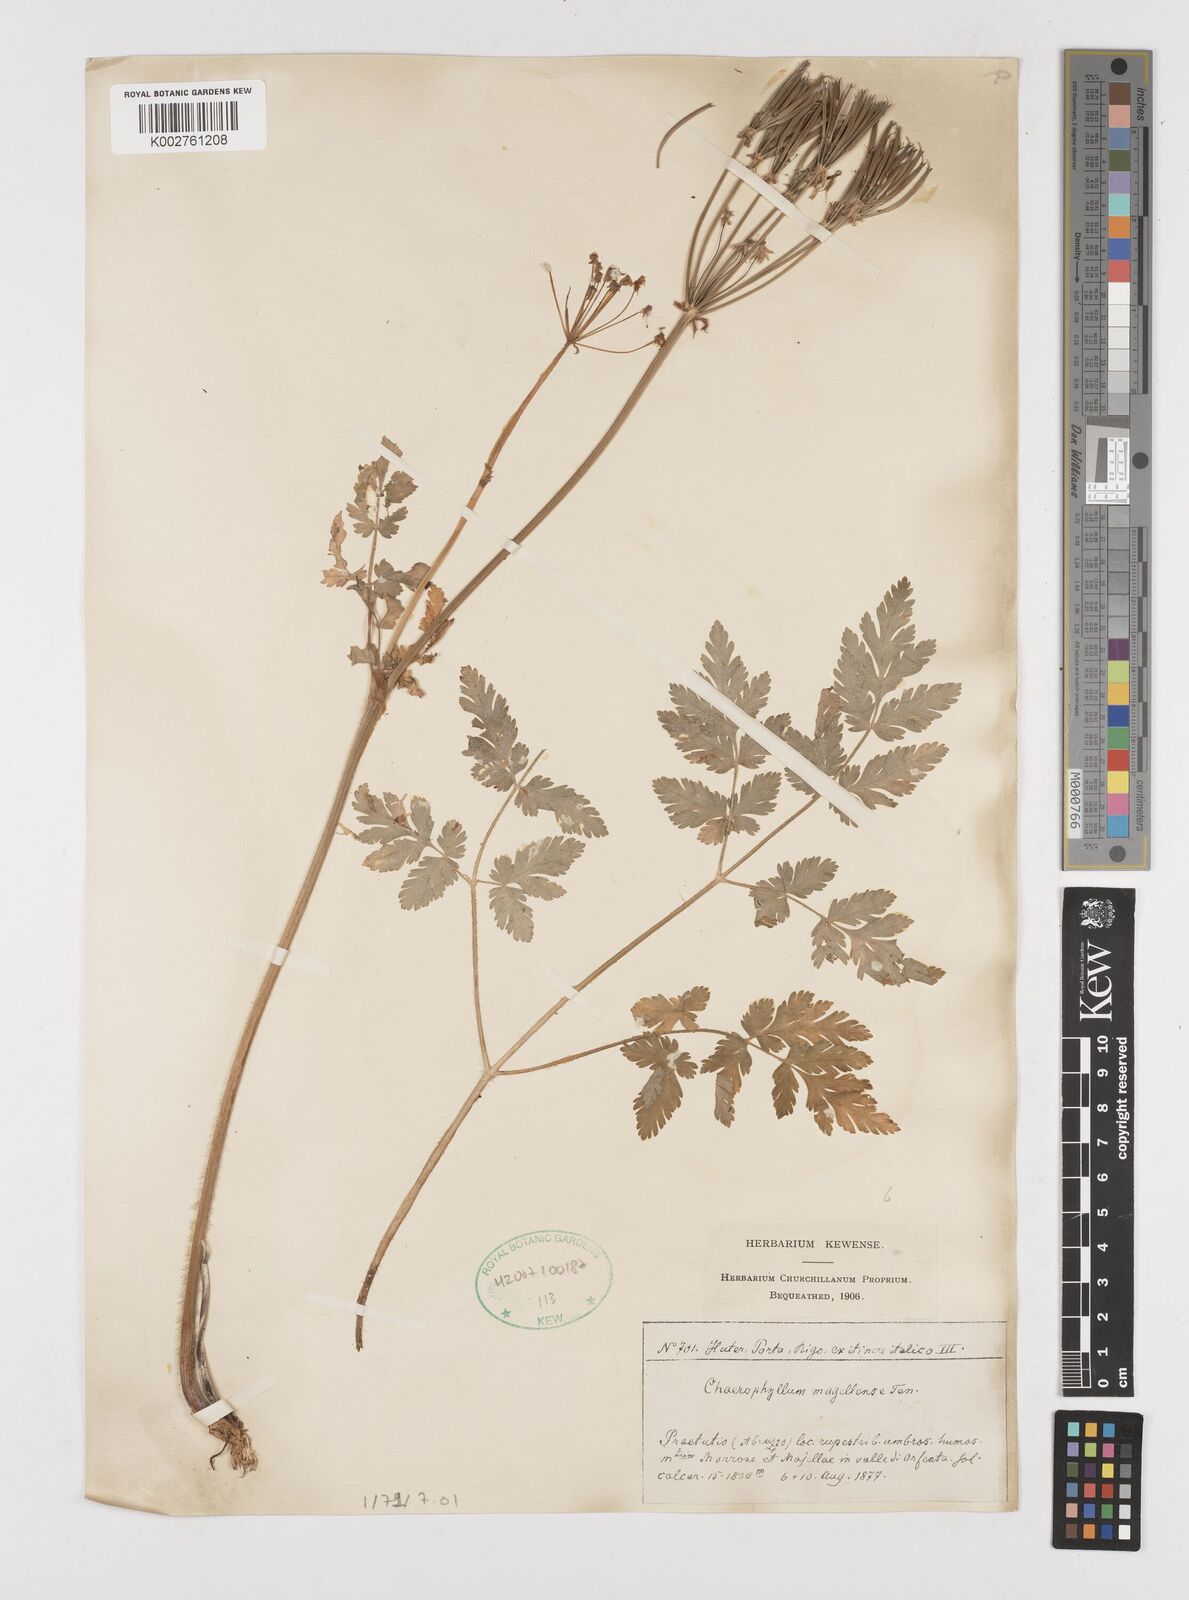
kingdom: Plantae
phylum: Tracheophyta
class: Magnoliopsida
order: Apiales
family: Apiaceae
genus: Chaerophyllum
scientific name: Chaerophyllum hirsutum
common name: Hairy chervil
